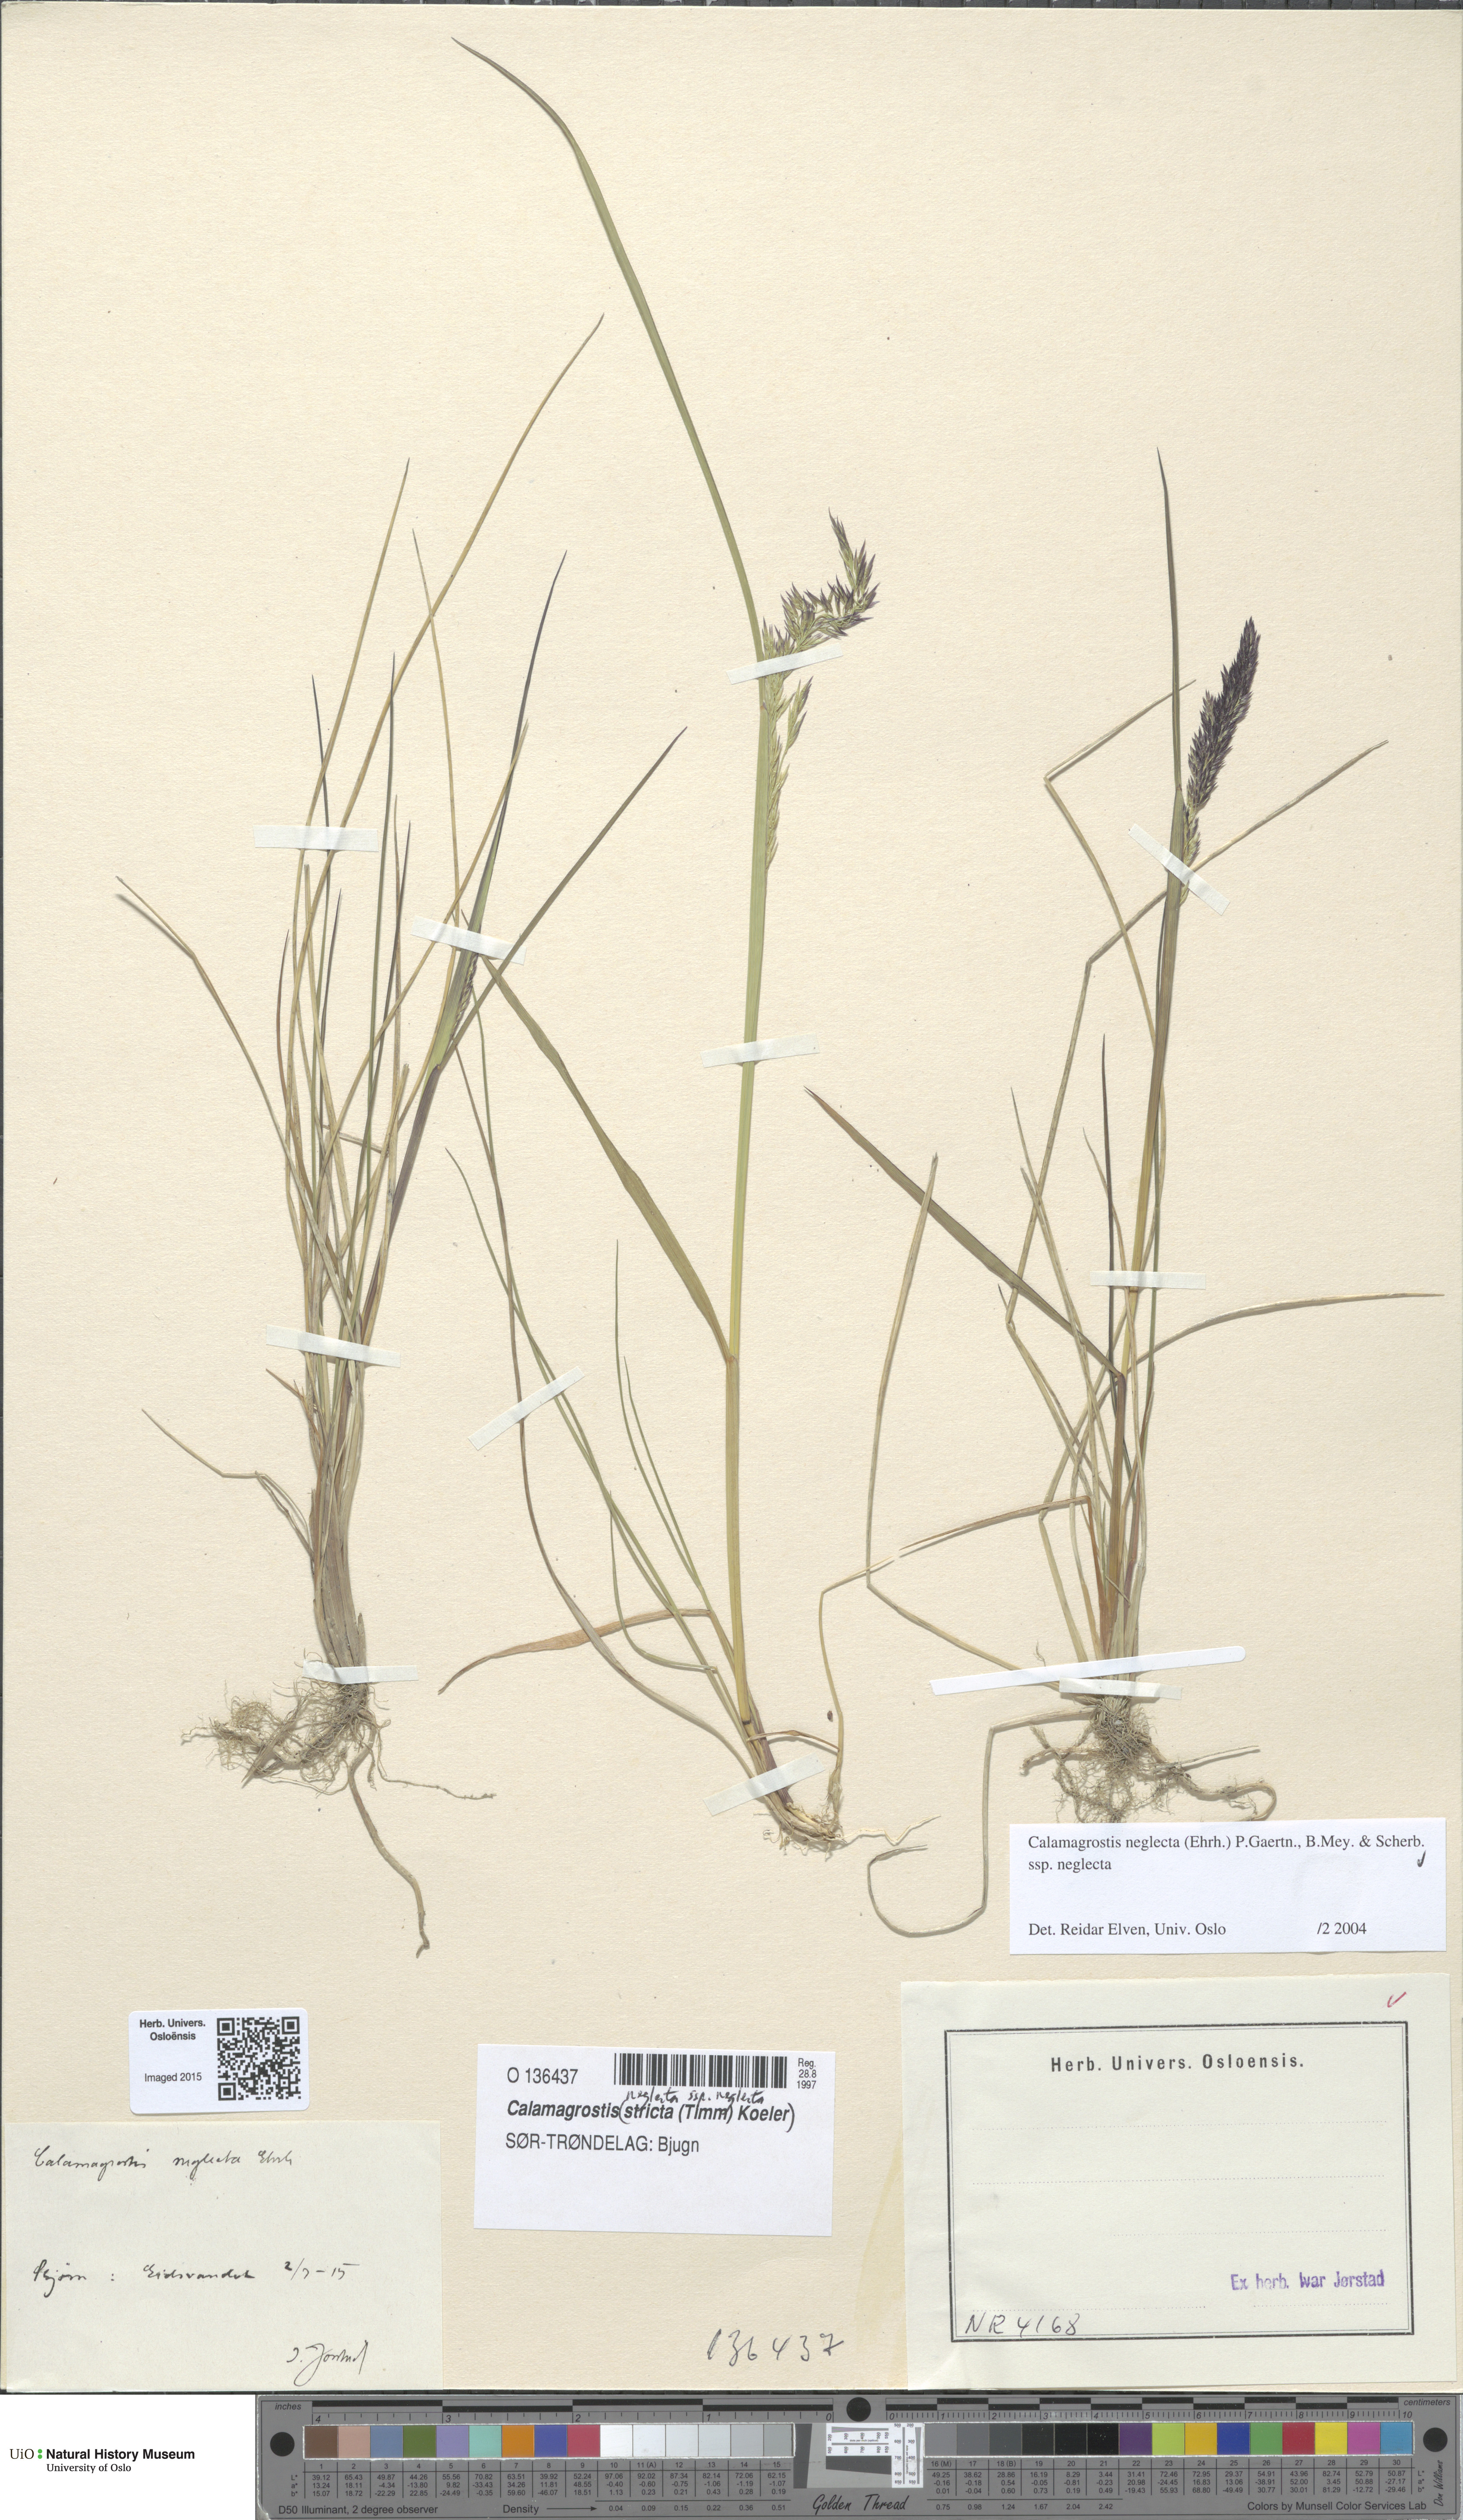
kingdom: Plantae
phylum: Tracheophyta
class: Liliopsida
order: Poales
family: Poaceae
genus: Achnatherum
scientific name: Achnatherum calamagrostis
